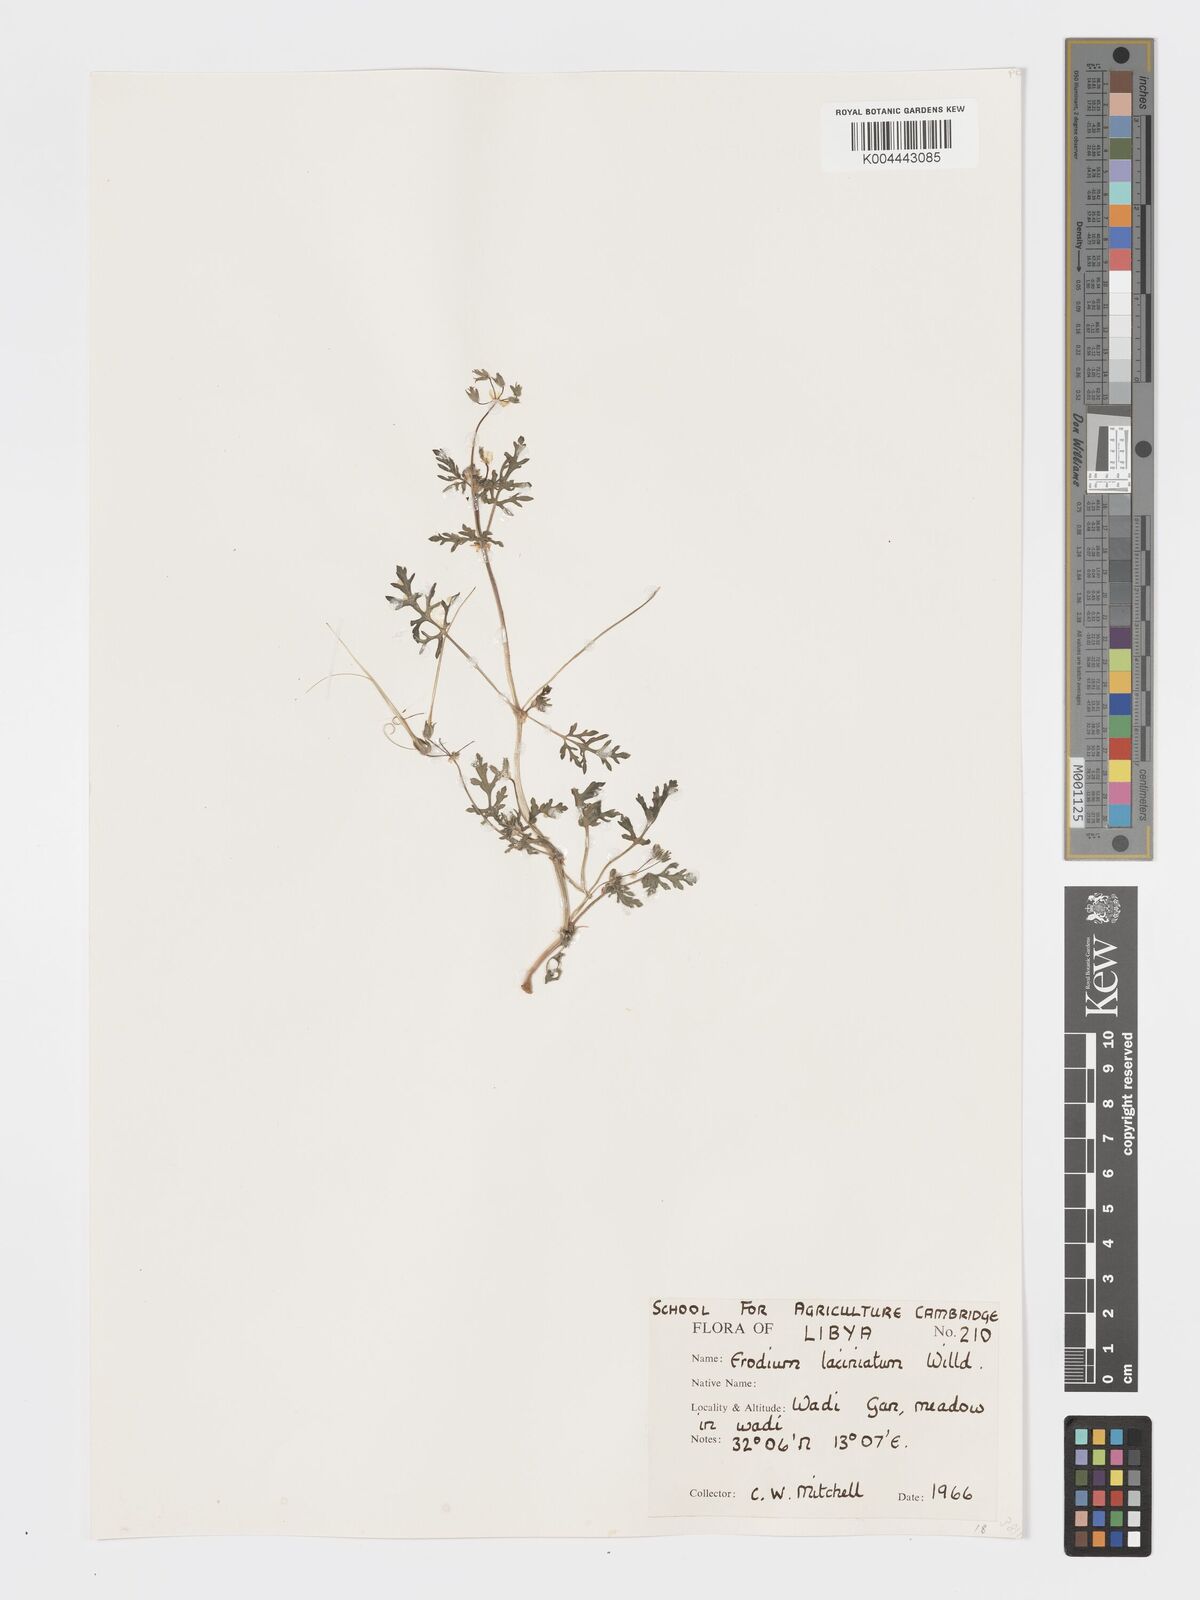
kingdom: Plantae
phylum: Tracheophyta
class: Magnoliopsida
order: Geraniales
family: Geraniaceae
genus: Erodium
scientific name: Erodium laciniatum
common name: Cutleaf stork's bill
